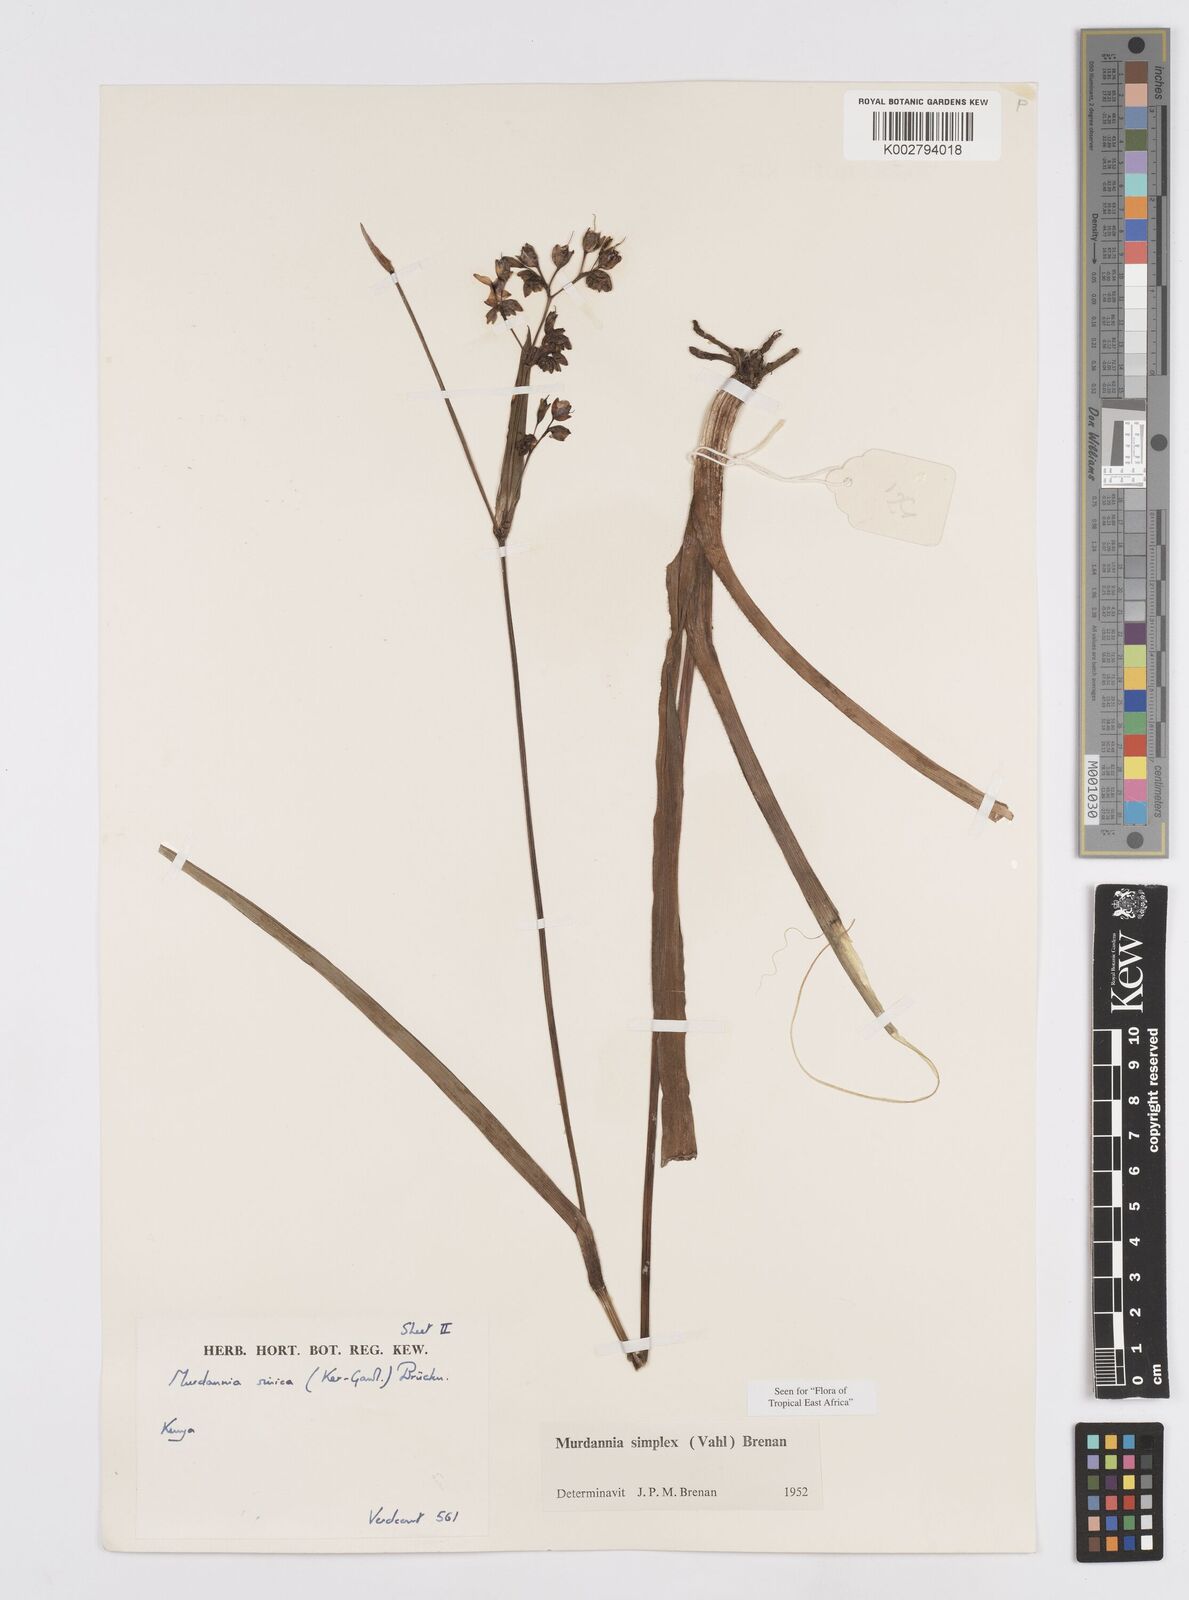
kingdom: Plantae
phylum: Tracheophyta
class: Liliopsida
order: Commelinales
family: Commelinaceae
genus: Murdannia
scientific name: Murdannia simplex
